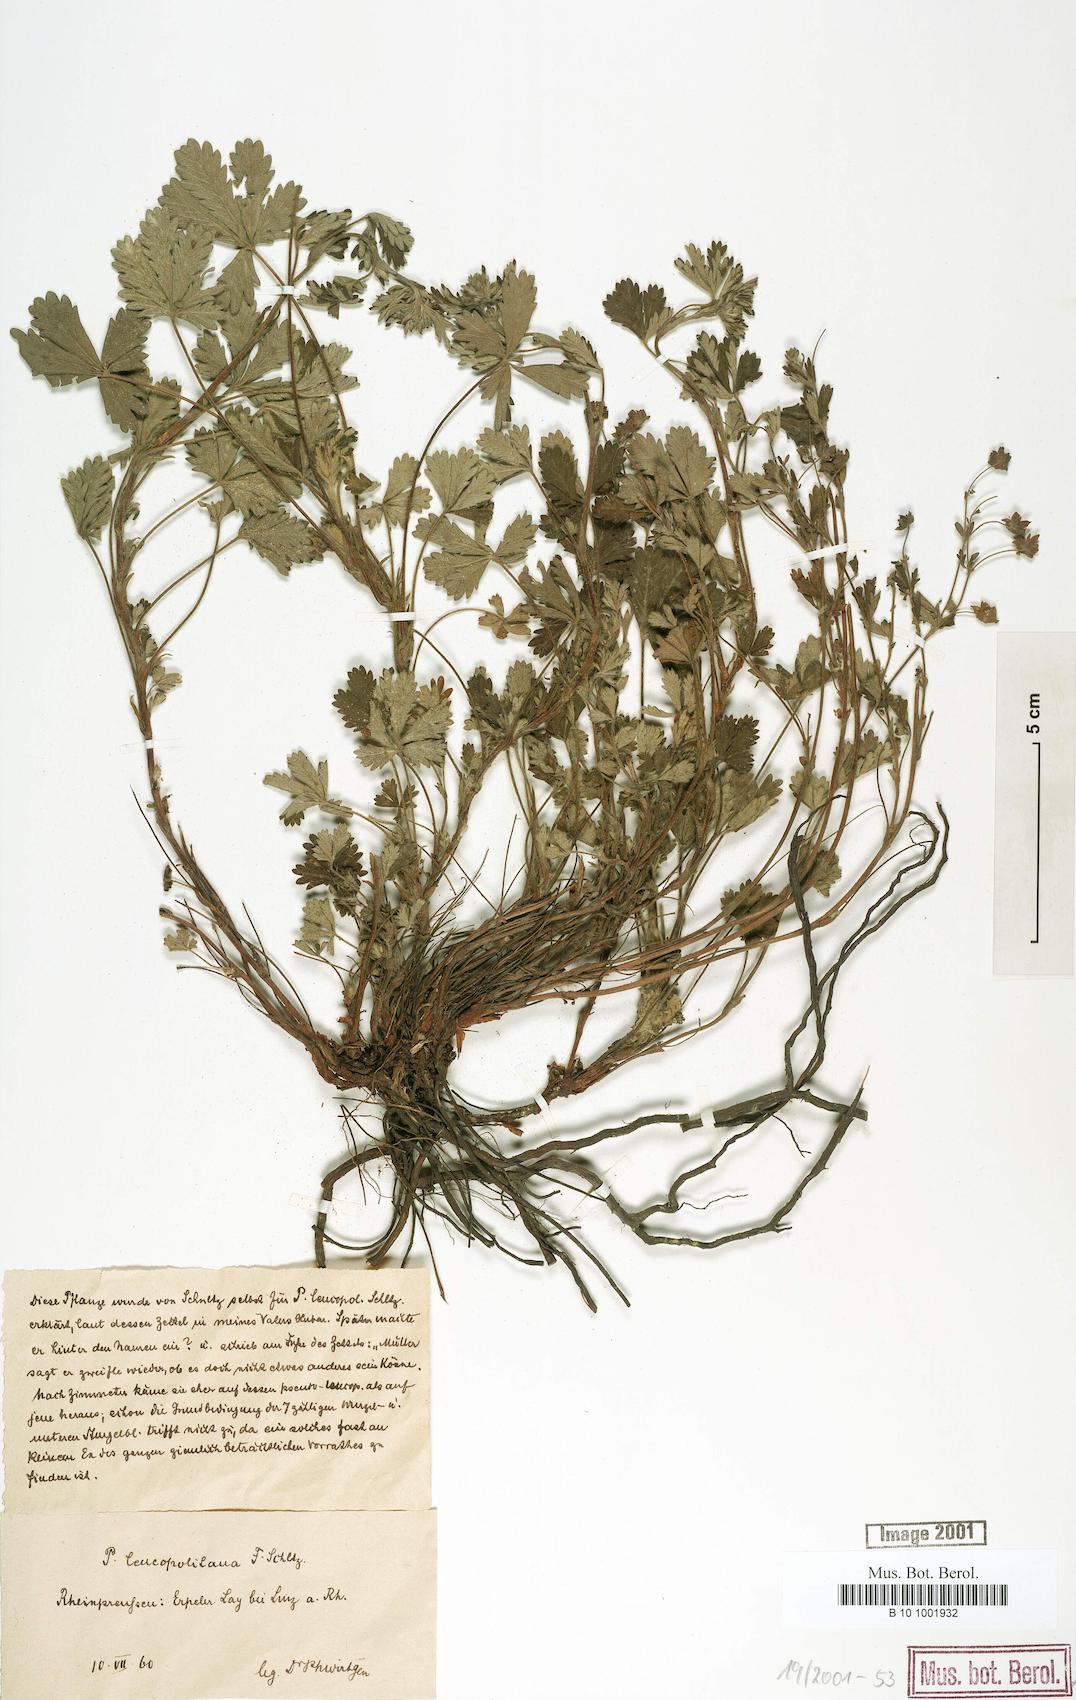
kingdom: Plantae
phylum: Tracheophyta
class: Magnoliopsida
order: Rosales
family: Rosaceae
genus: Potentilla
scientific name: Potentilla leucopolitana
